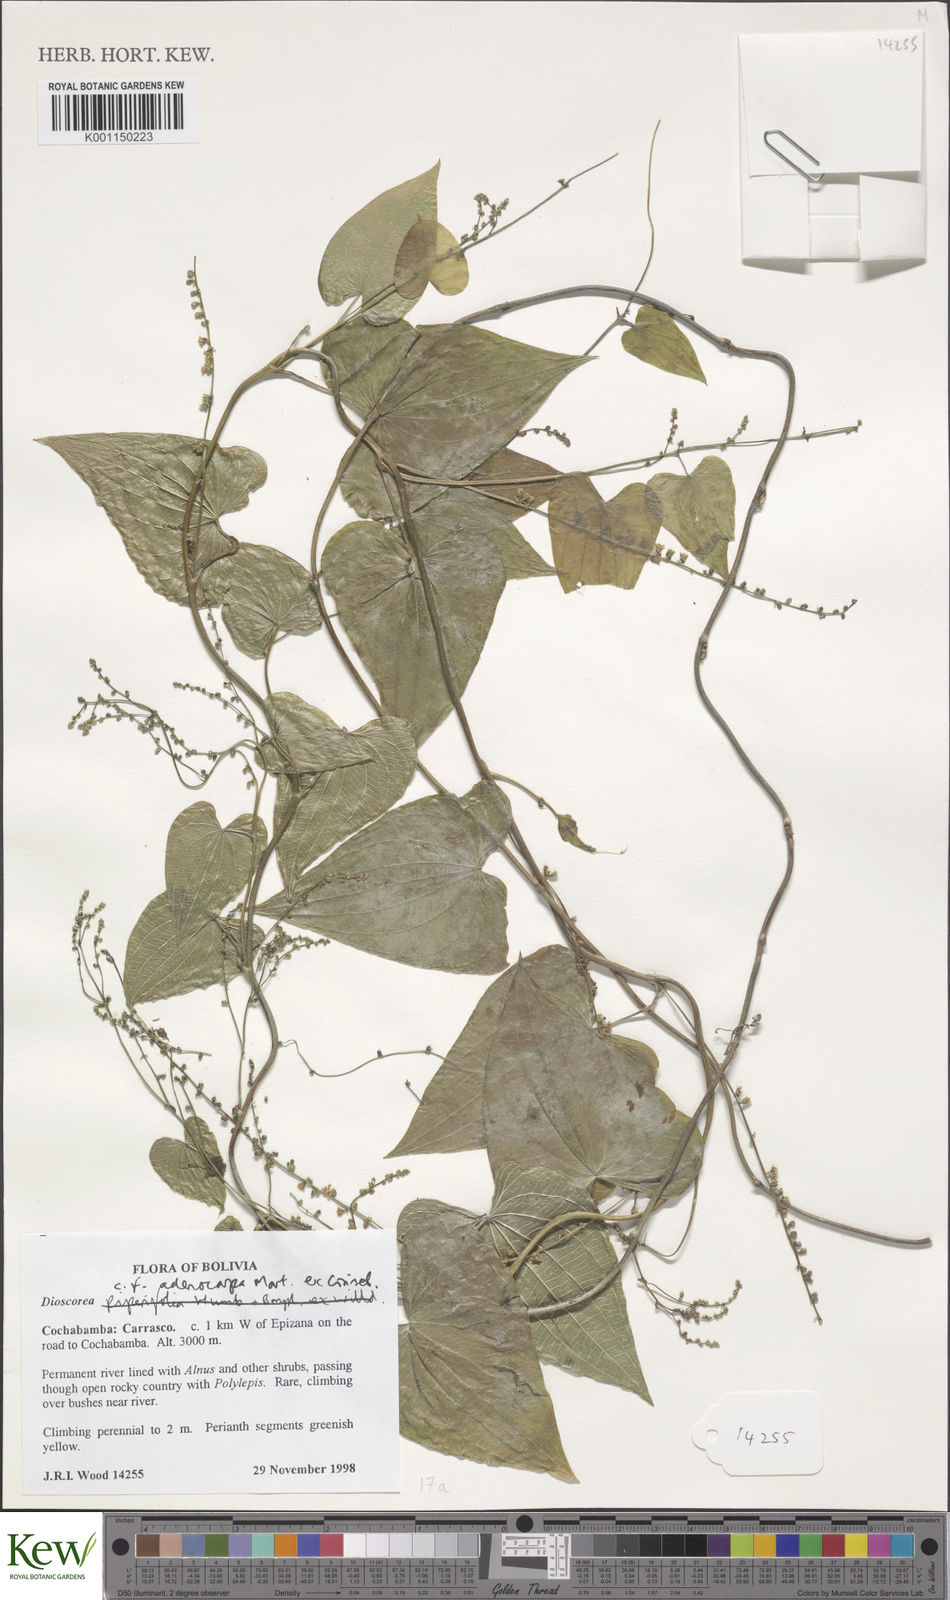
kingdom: Plantae
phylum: Tracheophyta
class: Liliopsida
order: Dioscoreales
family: Dioscoreaceae
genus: Dioscorea
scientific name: Dioscorea ovata
